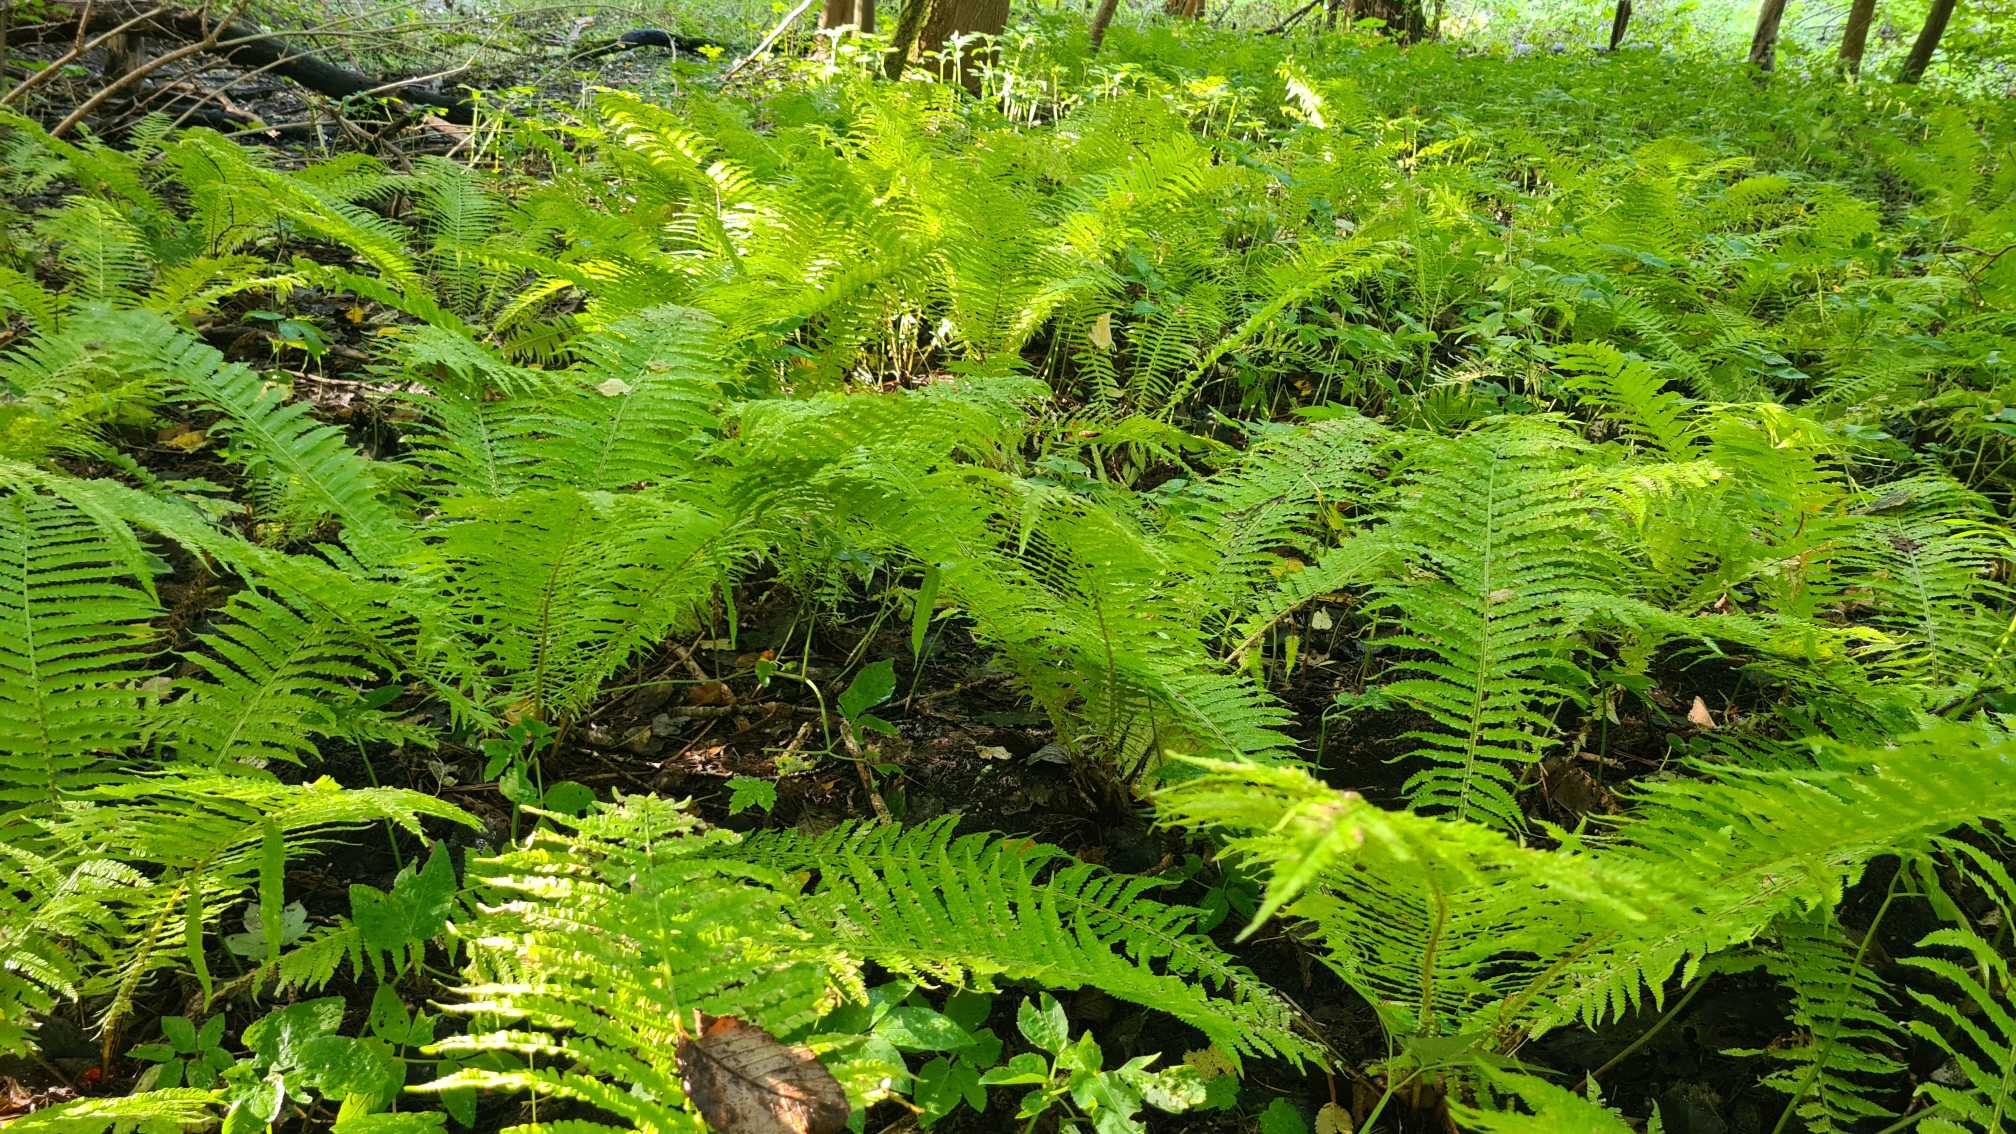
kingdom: Plantae
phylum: Tracheophyta
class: Polypodiopsida
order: Polypodiales
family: Onocleaceae
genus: Matteuccia
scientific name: Matteuccia struthiopteris
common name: Strudsvinge
